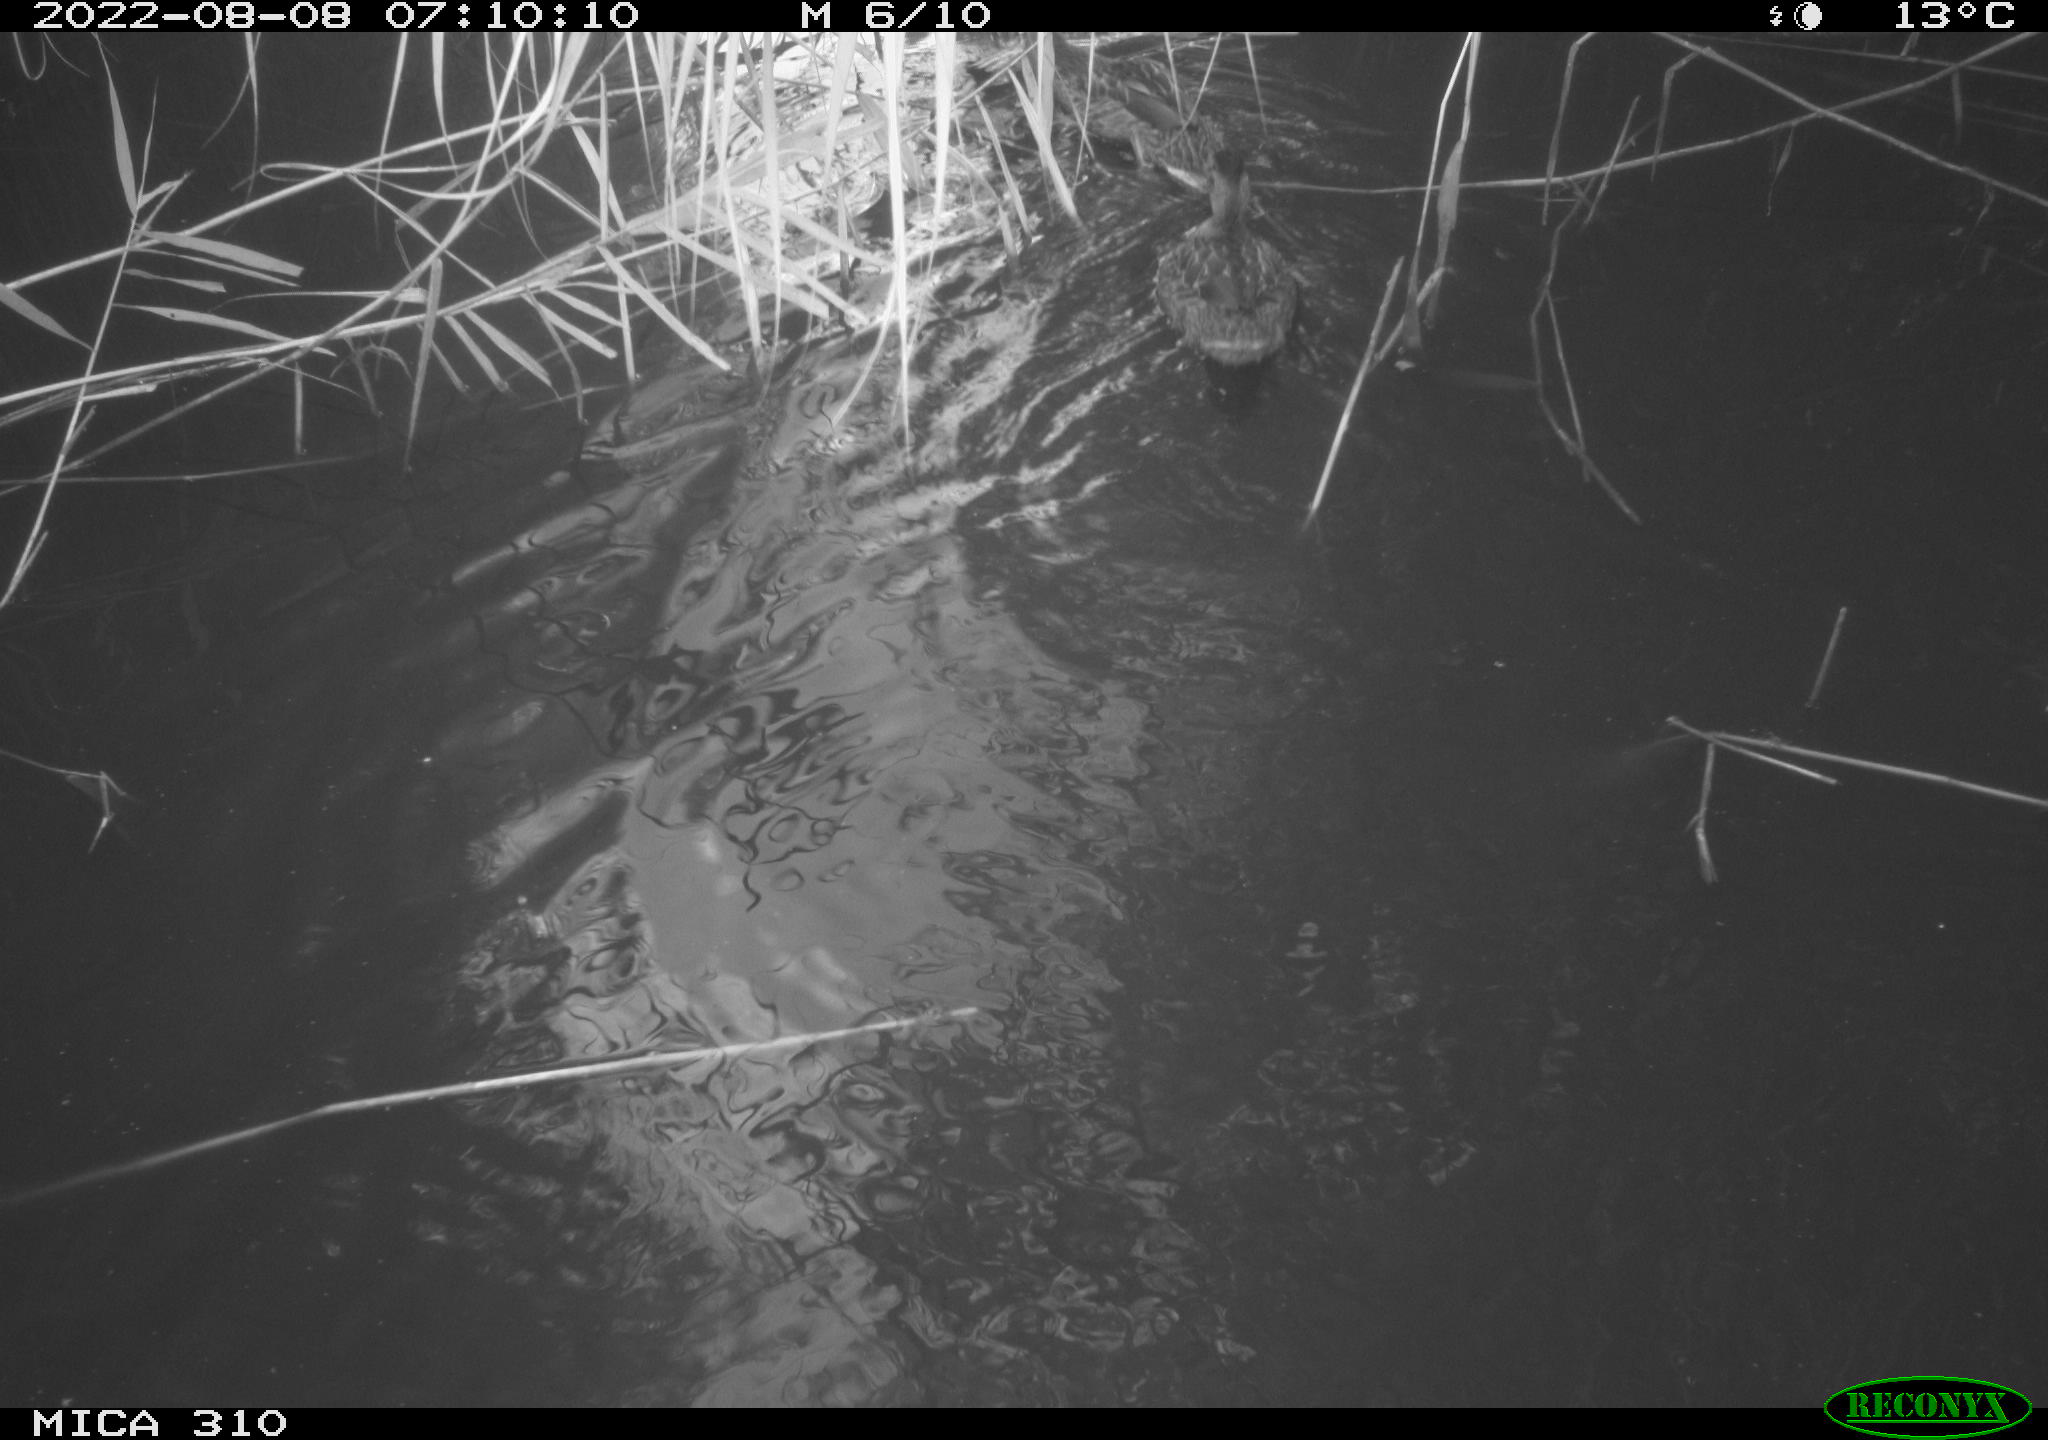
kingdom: Animalia
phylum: Chordata
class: Aves
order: Anseriformes
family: Anatidae
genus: Anas
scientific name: Anas platyrhynchos
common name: Mallard
